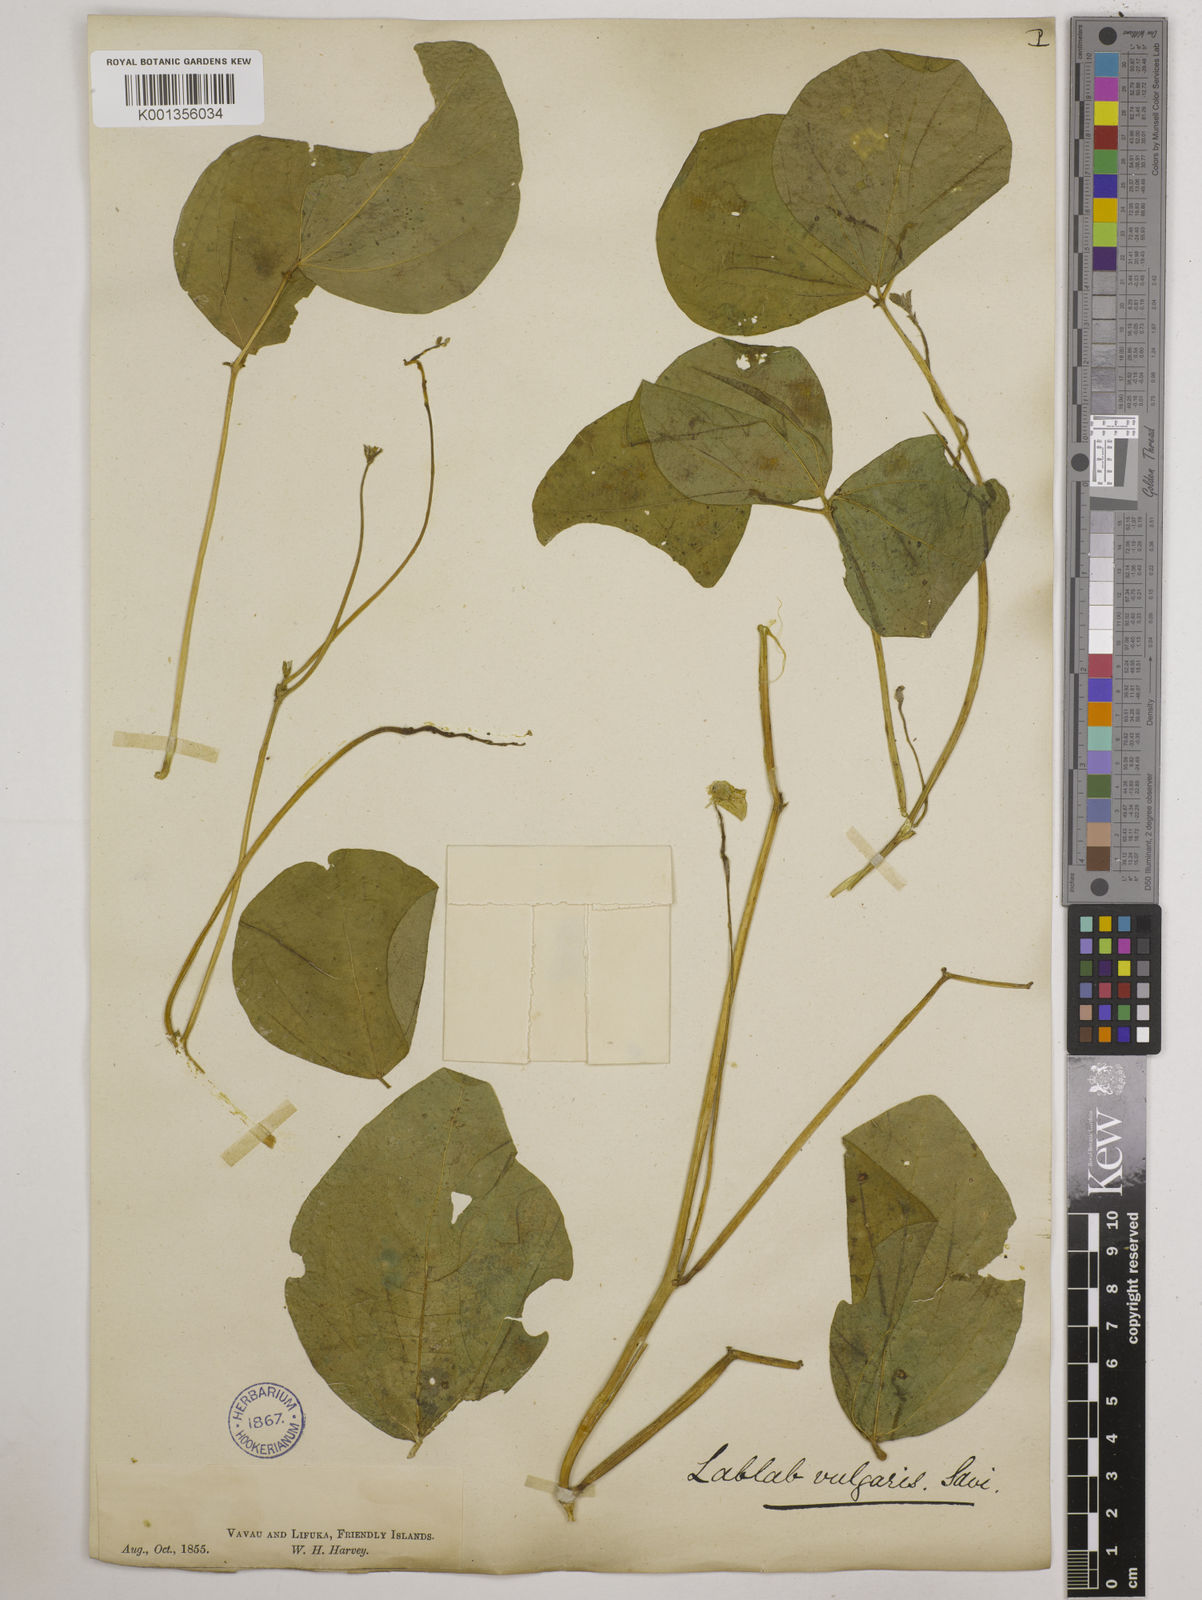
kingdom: Plantae
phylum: Tracheophyta
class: Magnoliopsida
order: Fabales
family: Fabaceae
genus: Lablab
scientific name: Lablab purpureus
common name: Lablab-bean
